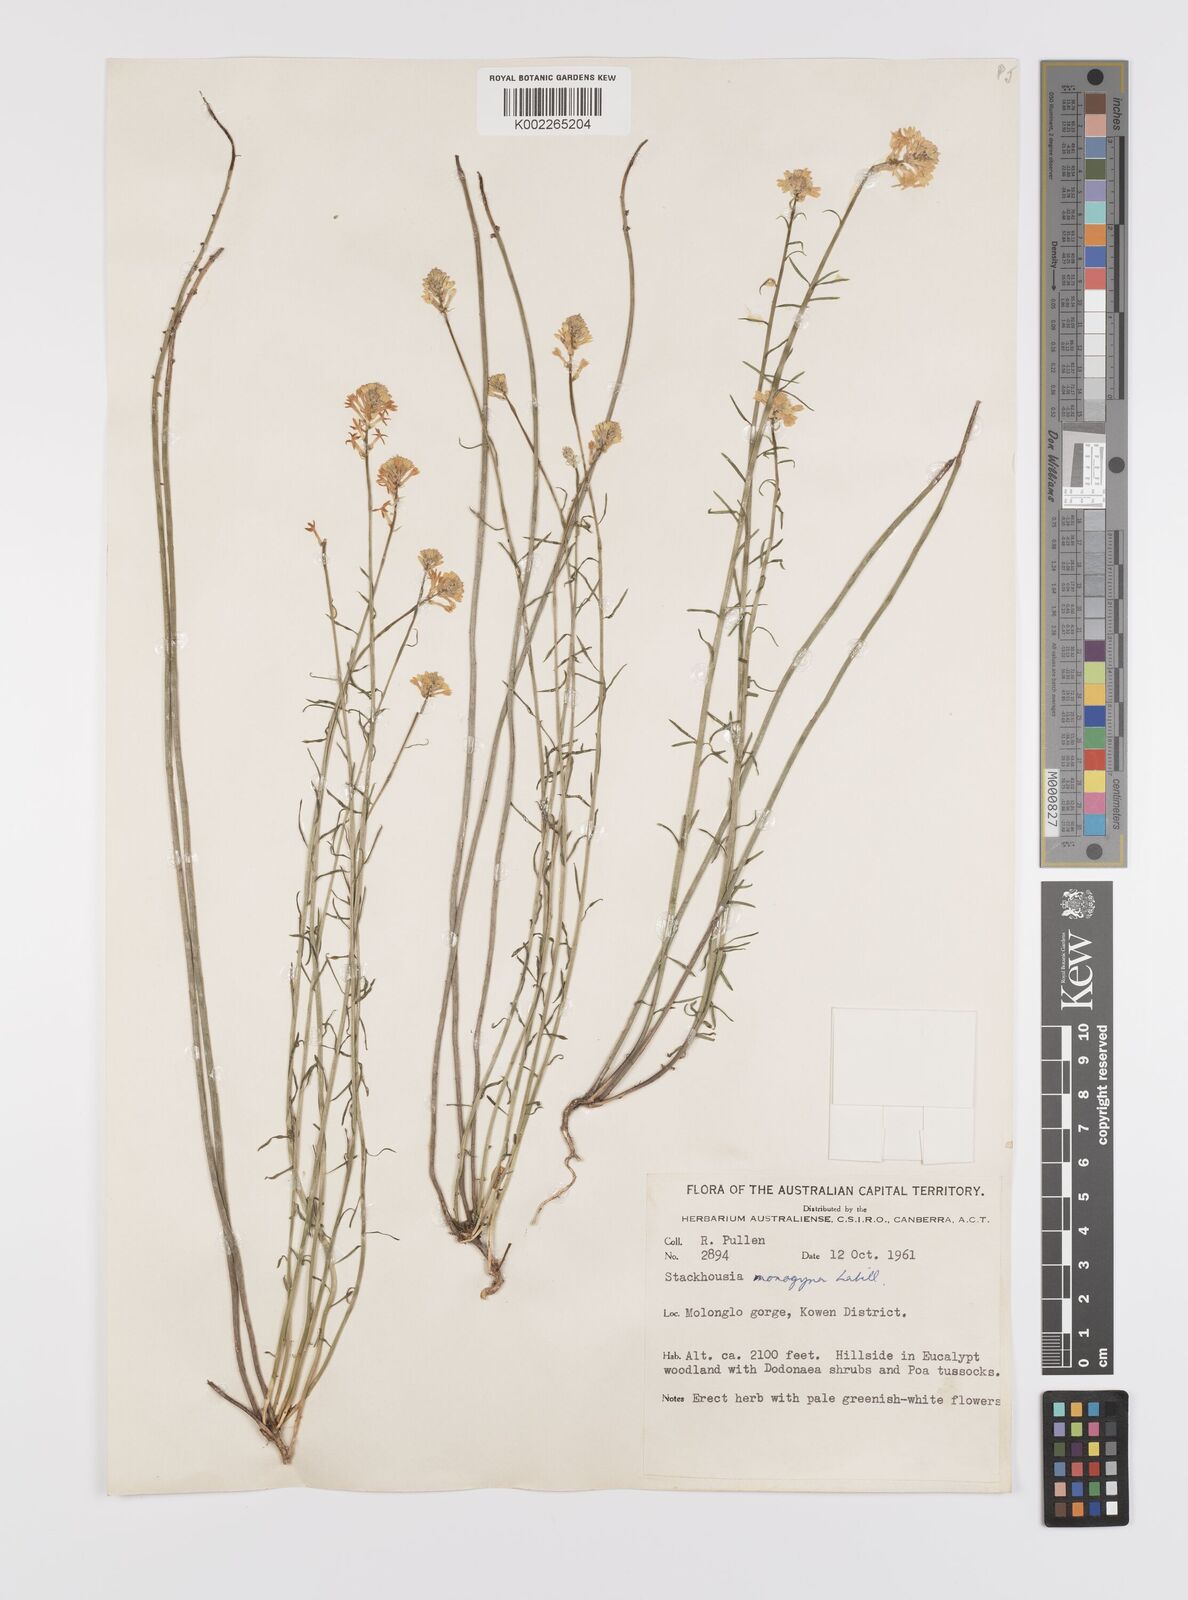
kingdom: Plantae
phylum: Tracheophyta
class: Magnoliopsida
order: Celastrales
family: Celastraceae
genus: Stackhousia
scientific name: Stackhousia monogyna
